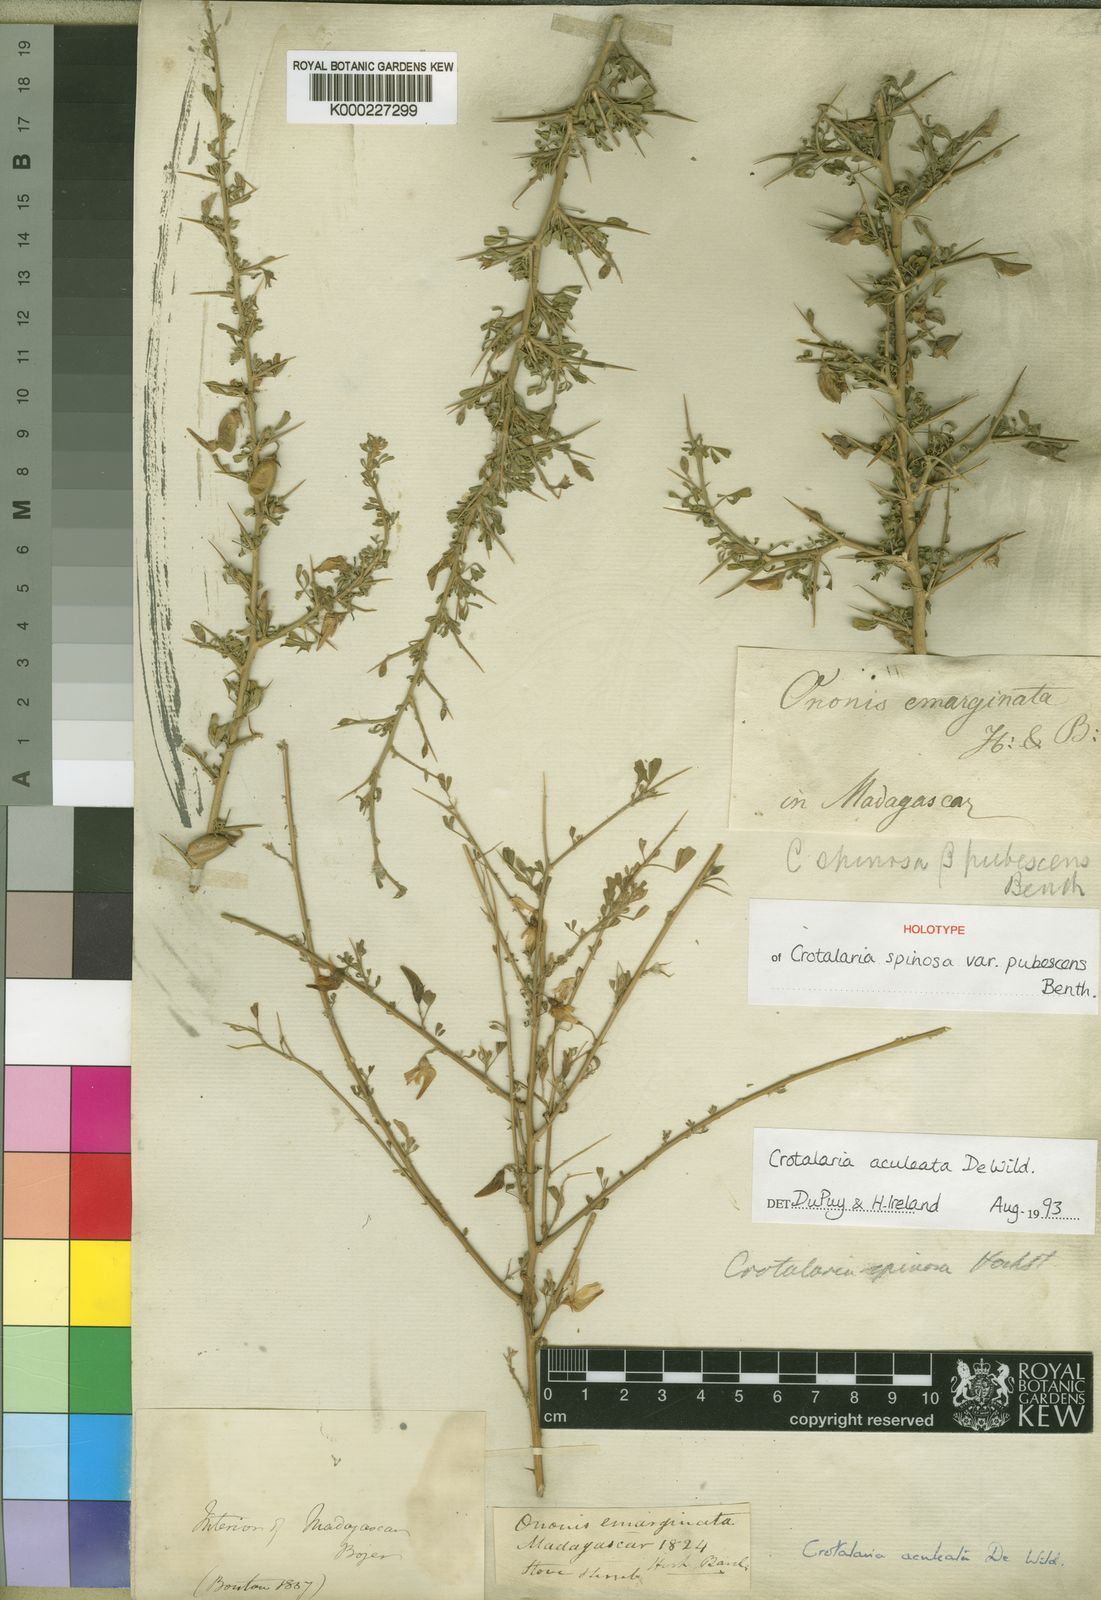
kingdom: Plantae
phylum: Tracheophyta
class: Magnoliopsida
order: Fabales
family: Fabaceae
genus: Crotalaria
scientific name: Crotalaria aculeata
